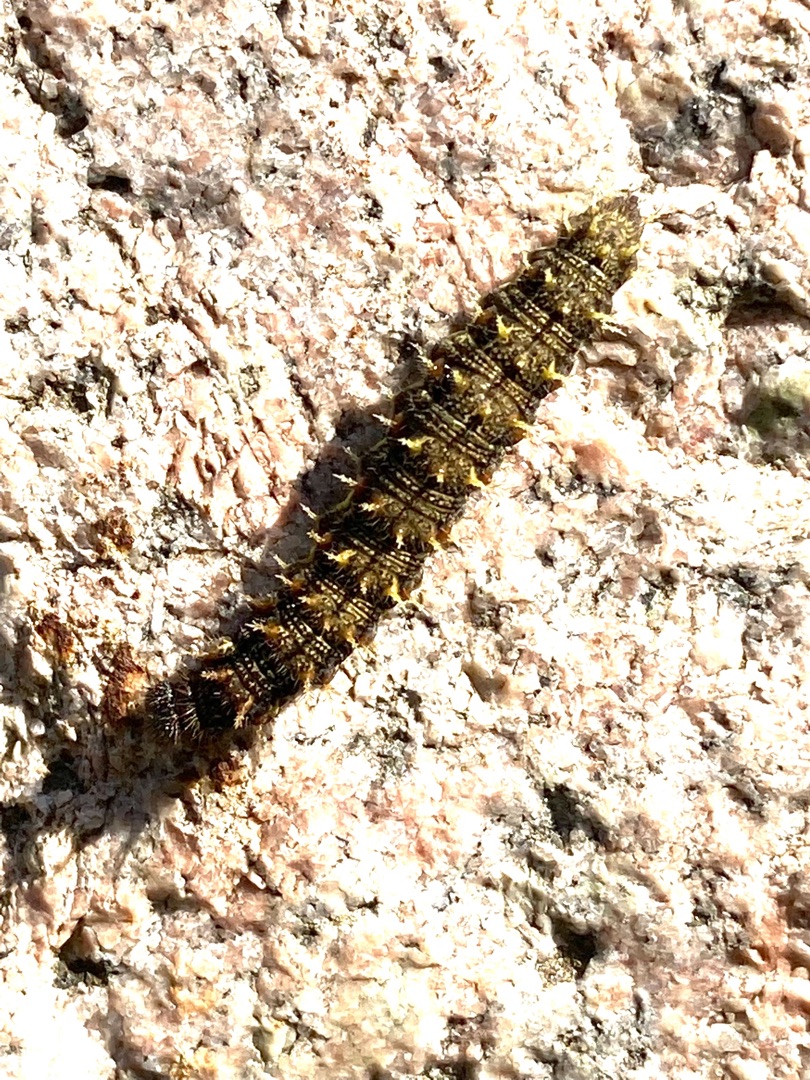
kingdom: Animalia
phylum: Arthropoda
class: Insecta
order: Lepidoptera
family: Nymphalidae
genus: Vanessa
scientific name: Vanessa atalanta
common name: Admiral
